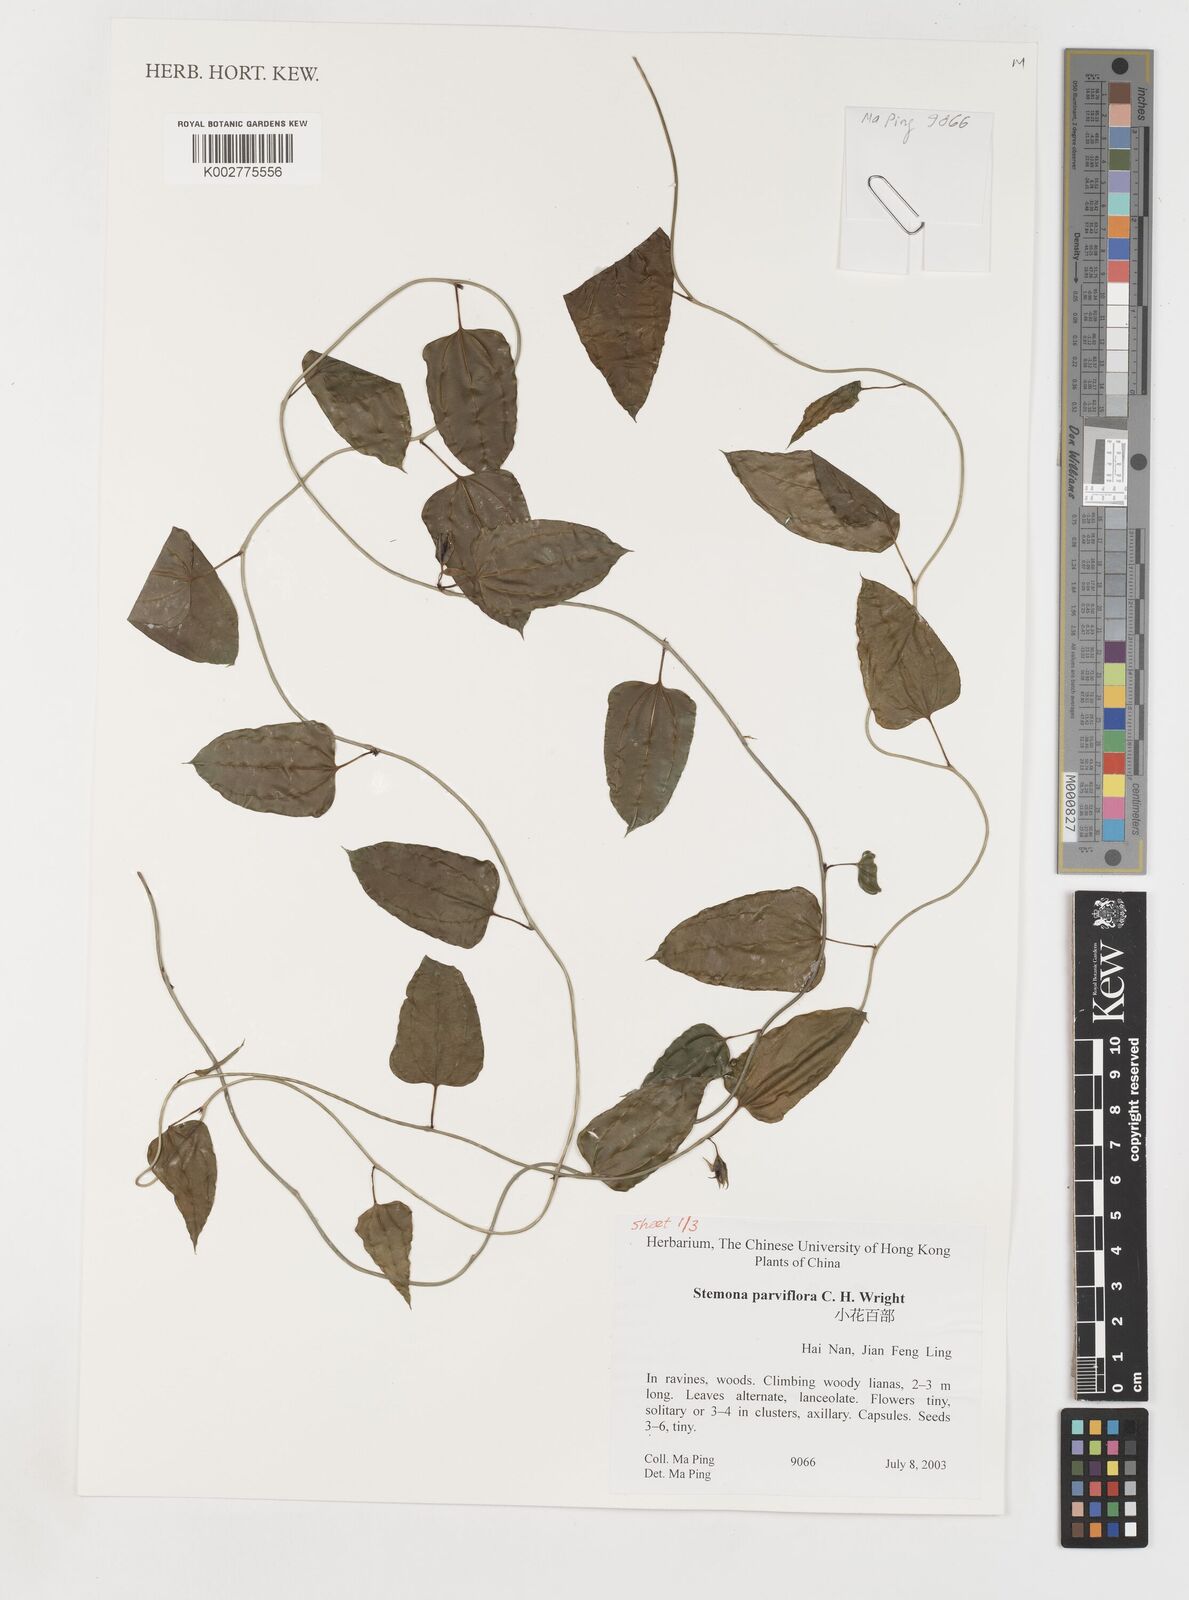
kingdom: Plantae
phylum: Tracheophyta
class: Liliopsida
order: Pandanales
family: Stemonaceae
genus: Stemona
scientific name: Stemona parviflora
